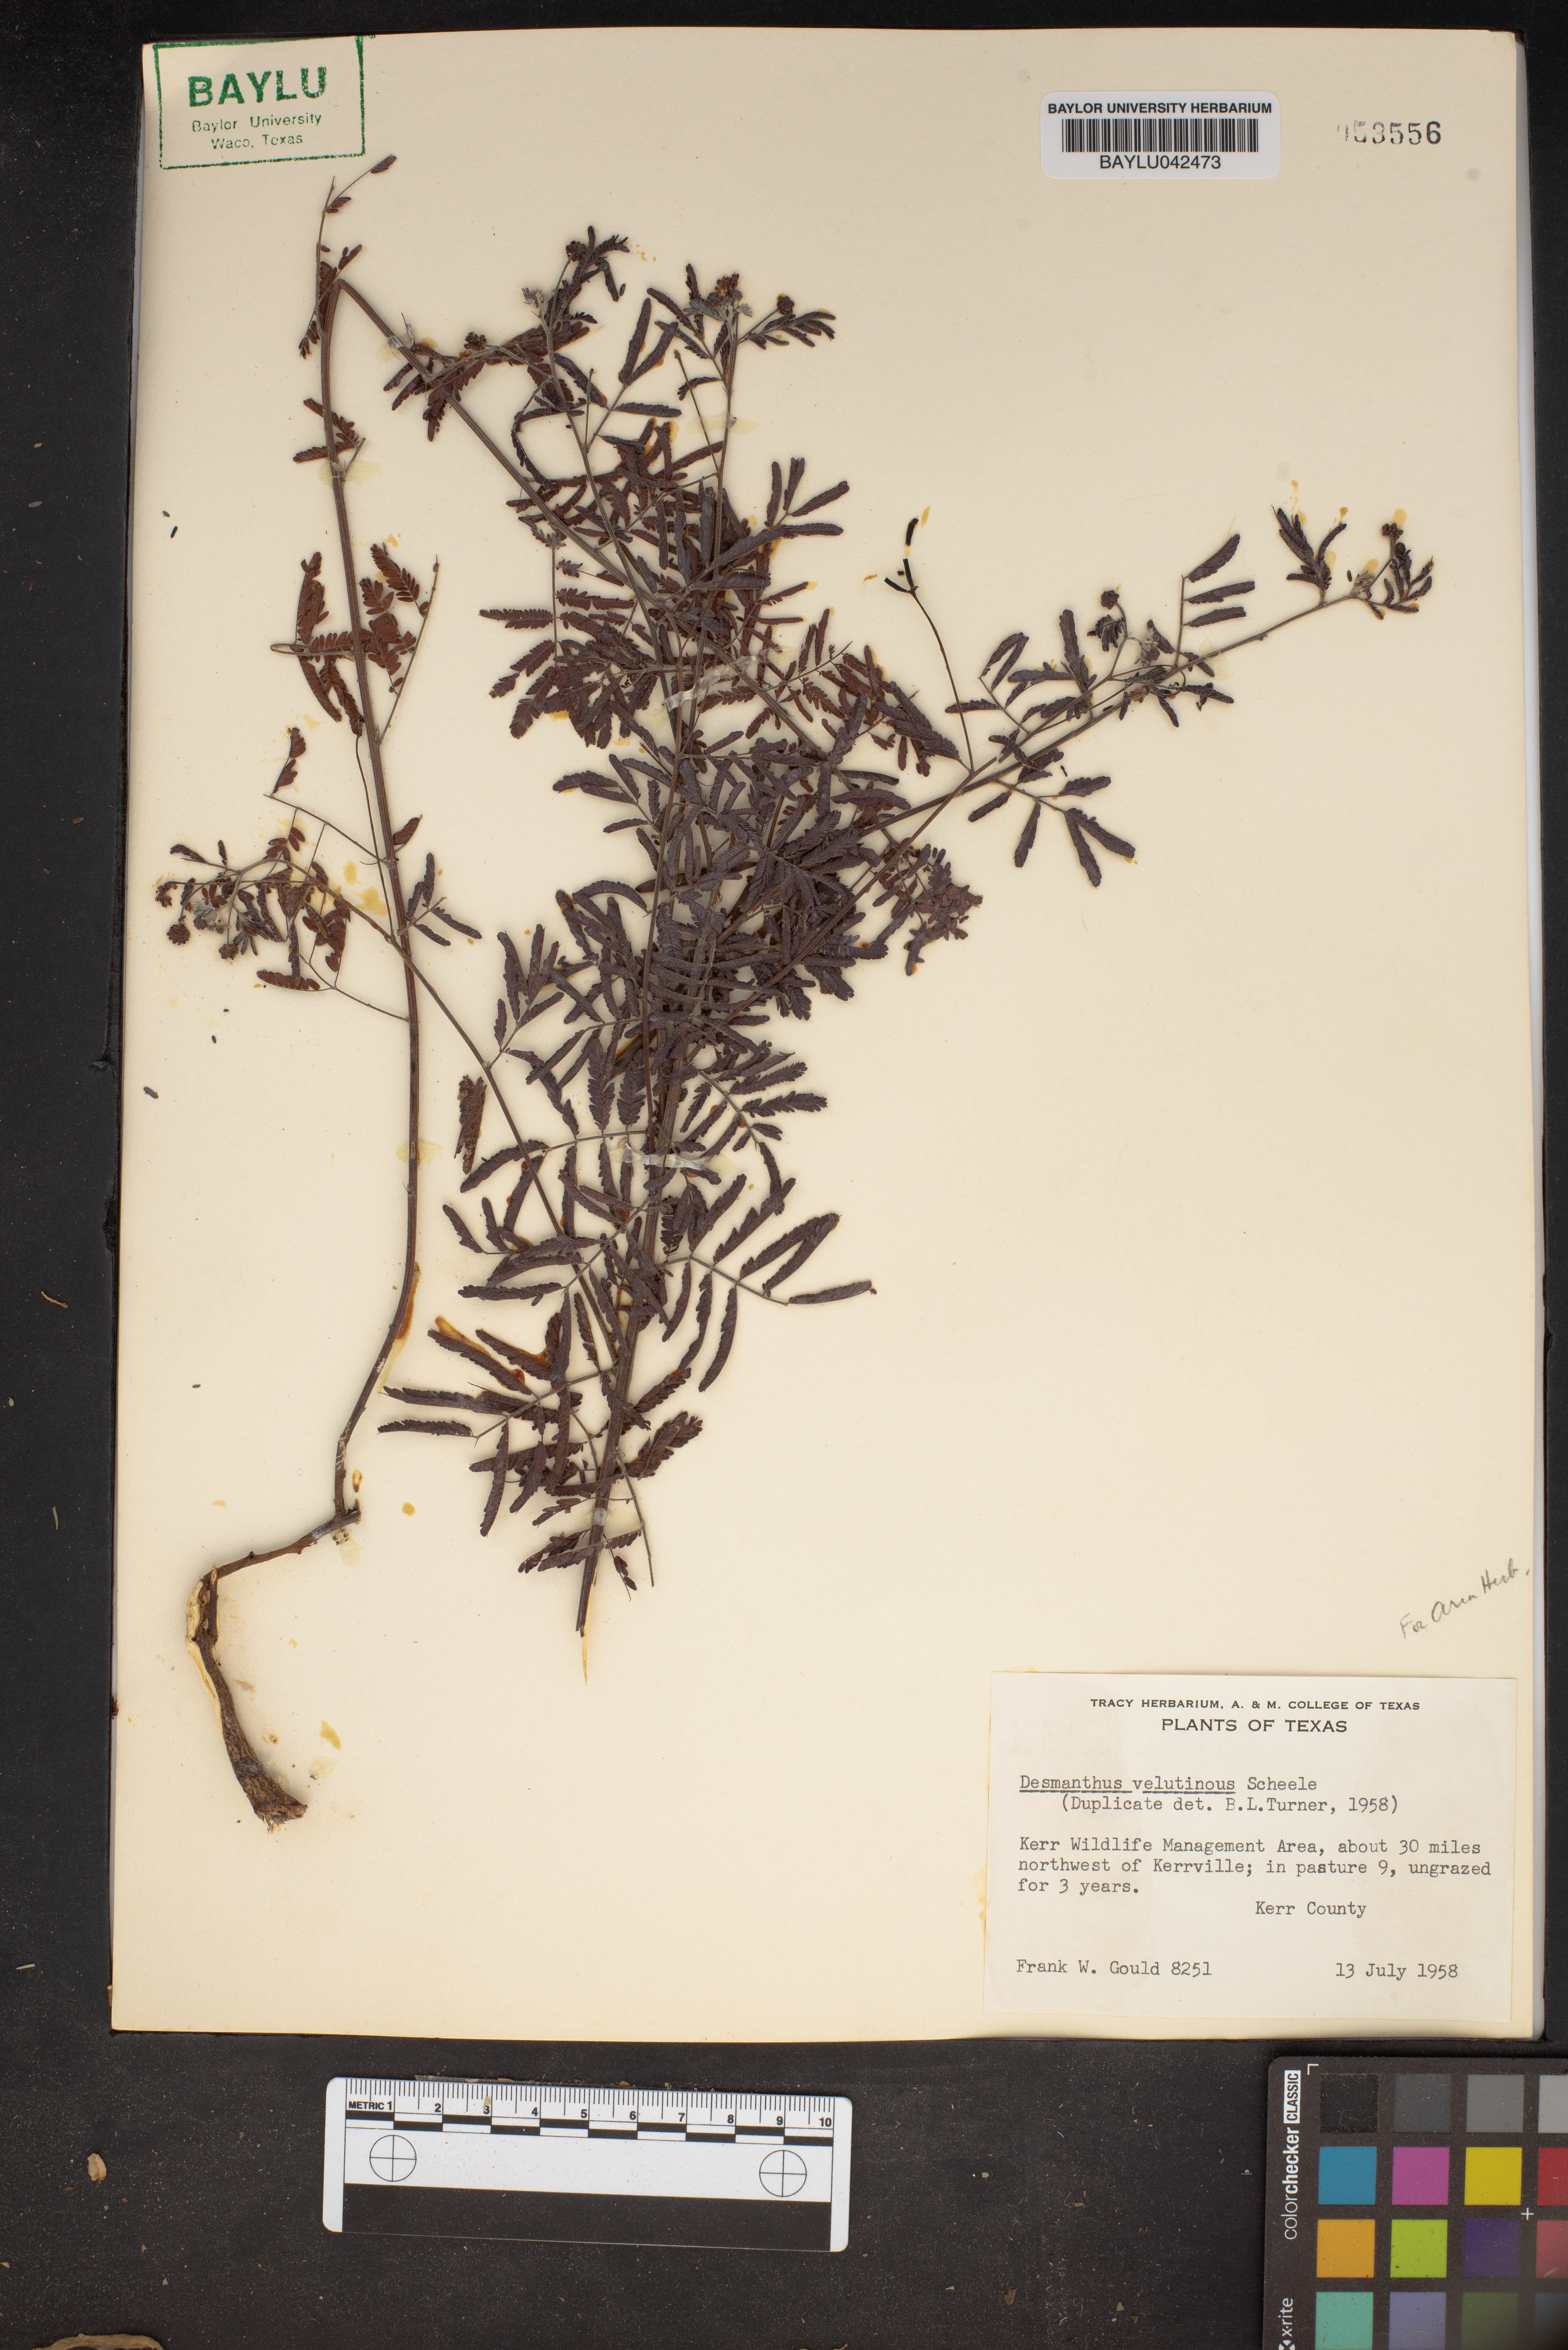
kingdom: Plantae
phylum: Tracheophyta
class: Magnoliopsida
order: Fabales
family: Fabaceae
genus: Desmanthus
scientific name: Desmanthus velutinus
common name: Velvet bundle-flower
